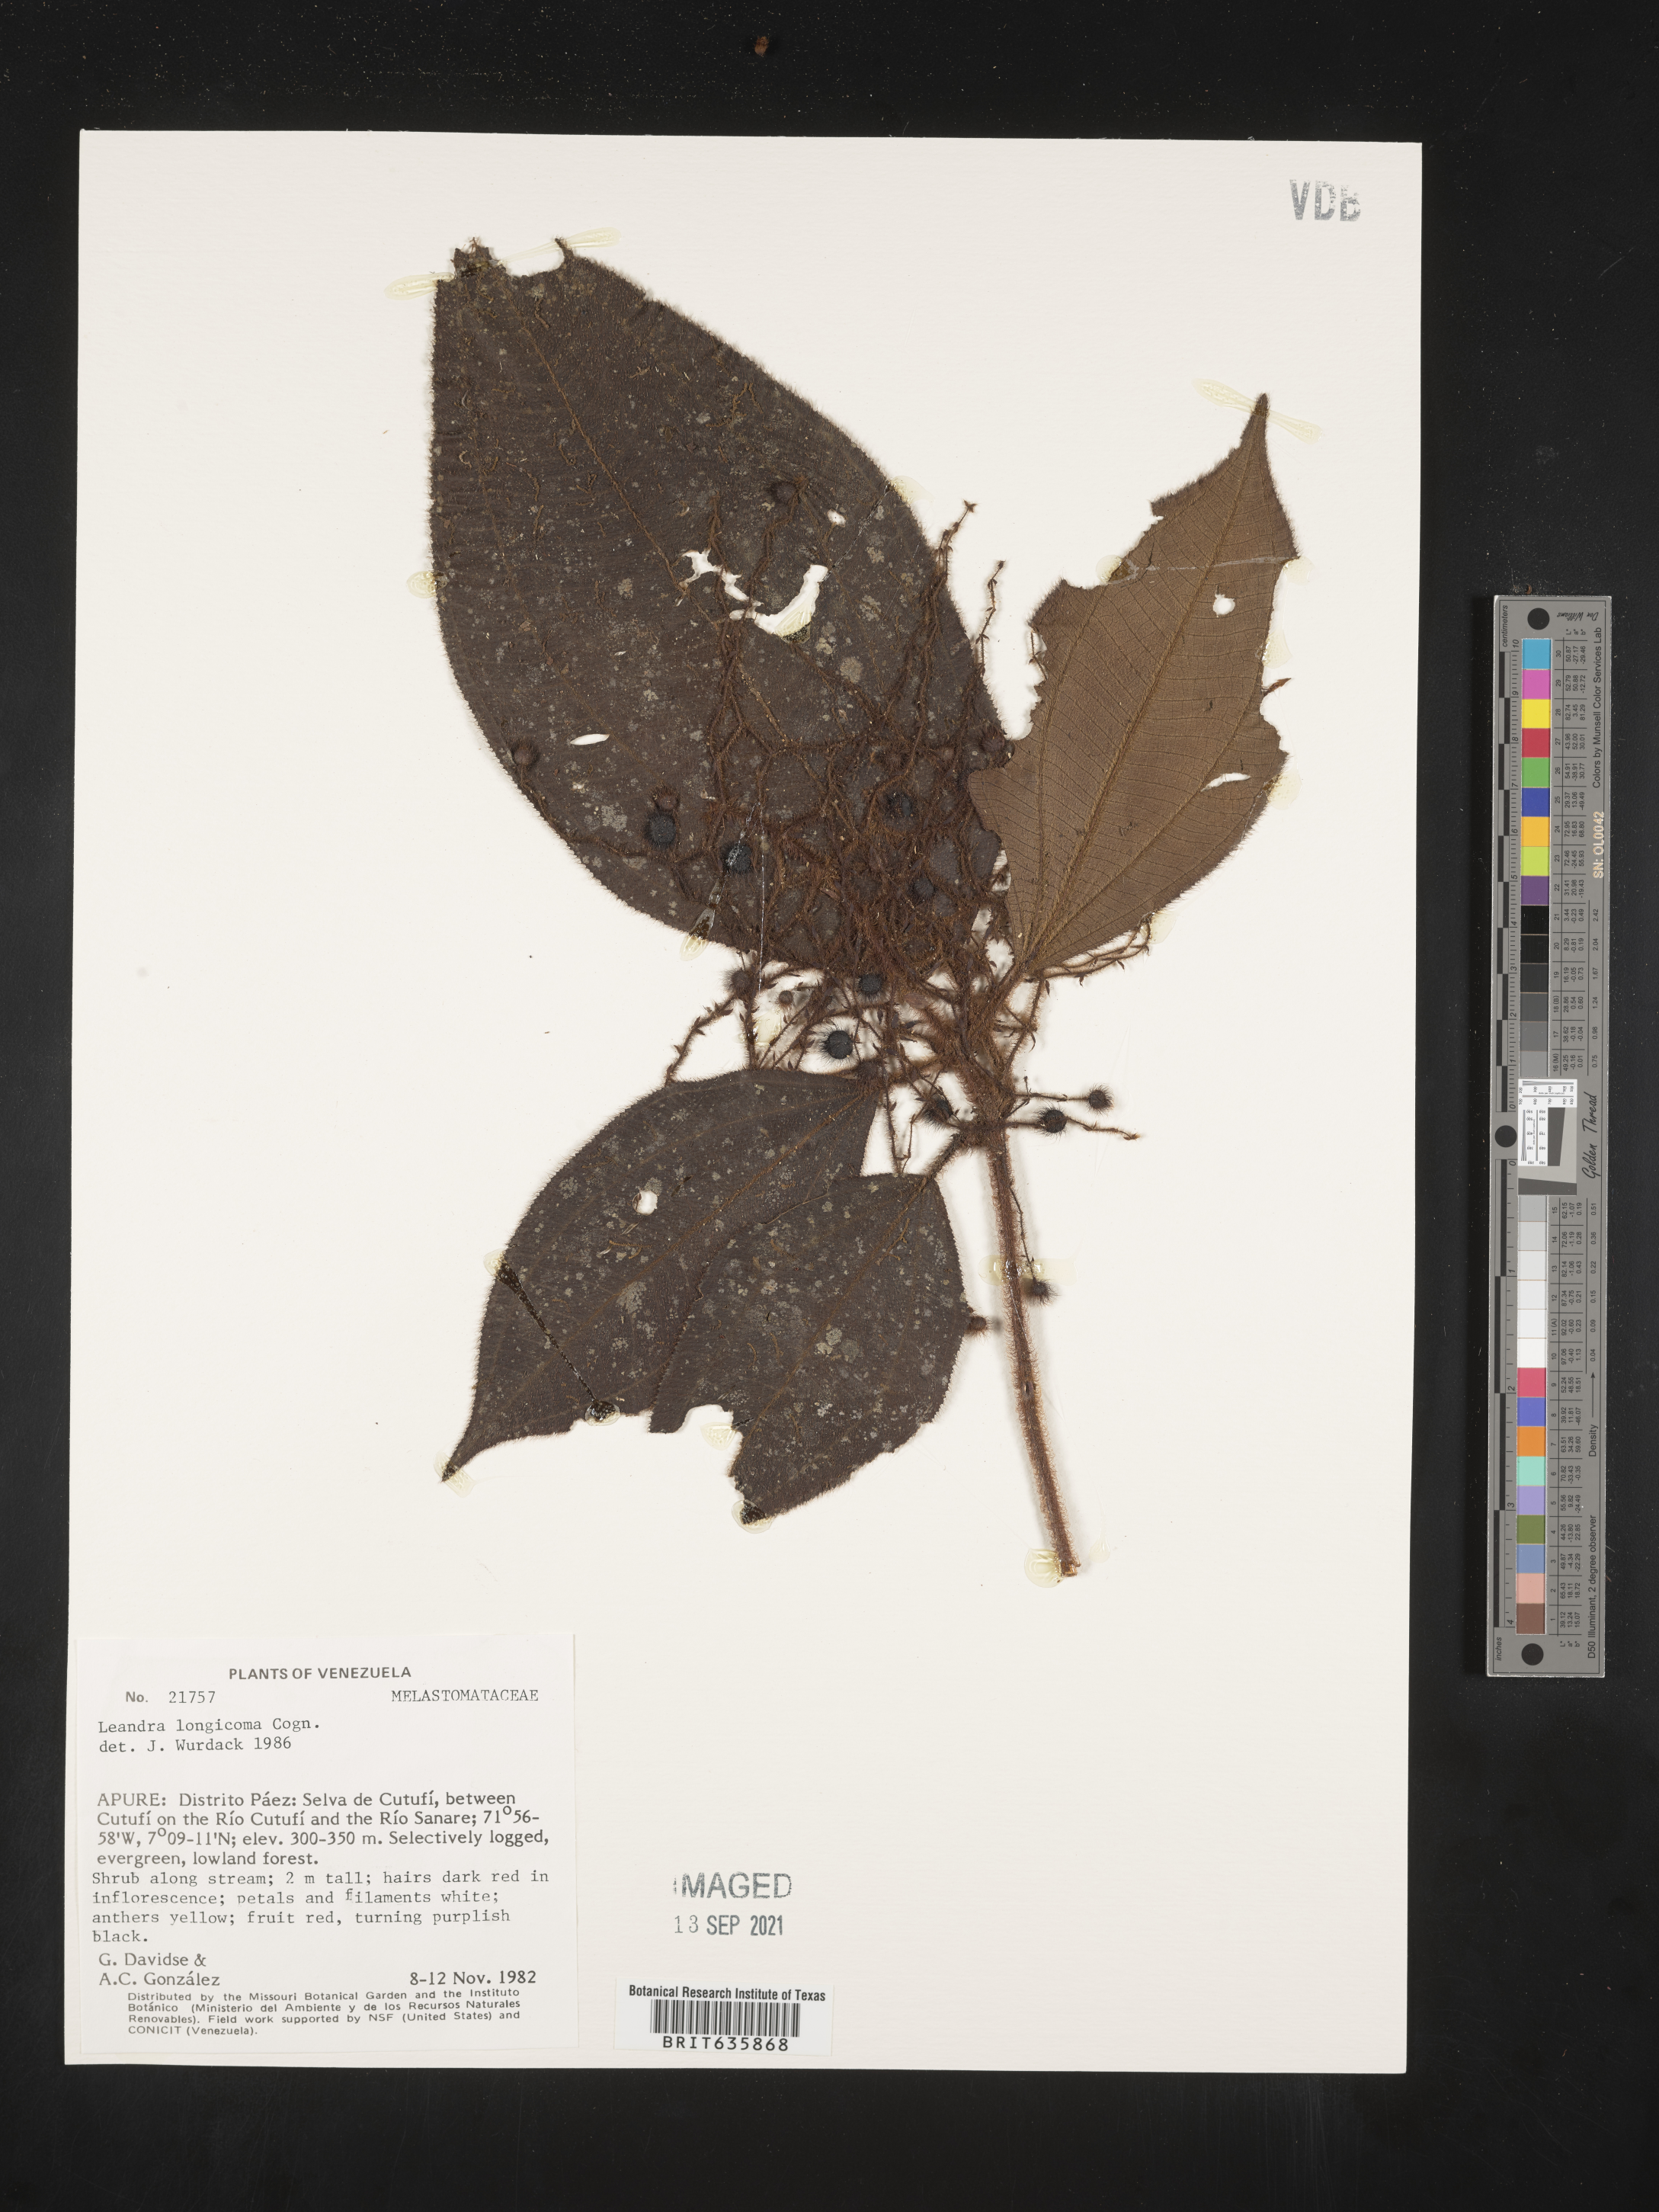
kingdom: Plantae
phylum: Tracheophyta
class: Magnoliopsida
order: Myrtales
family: Melastomataceae
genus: Miconia
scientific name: Miconia
